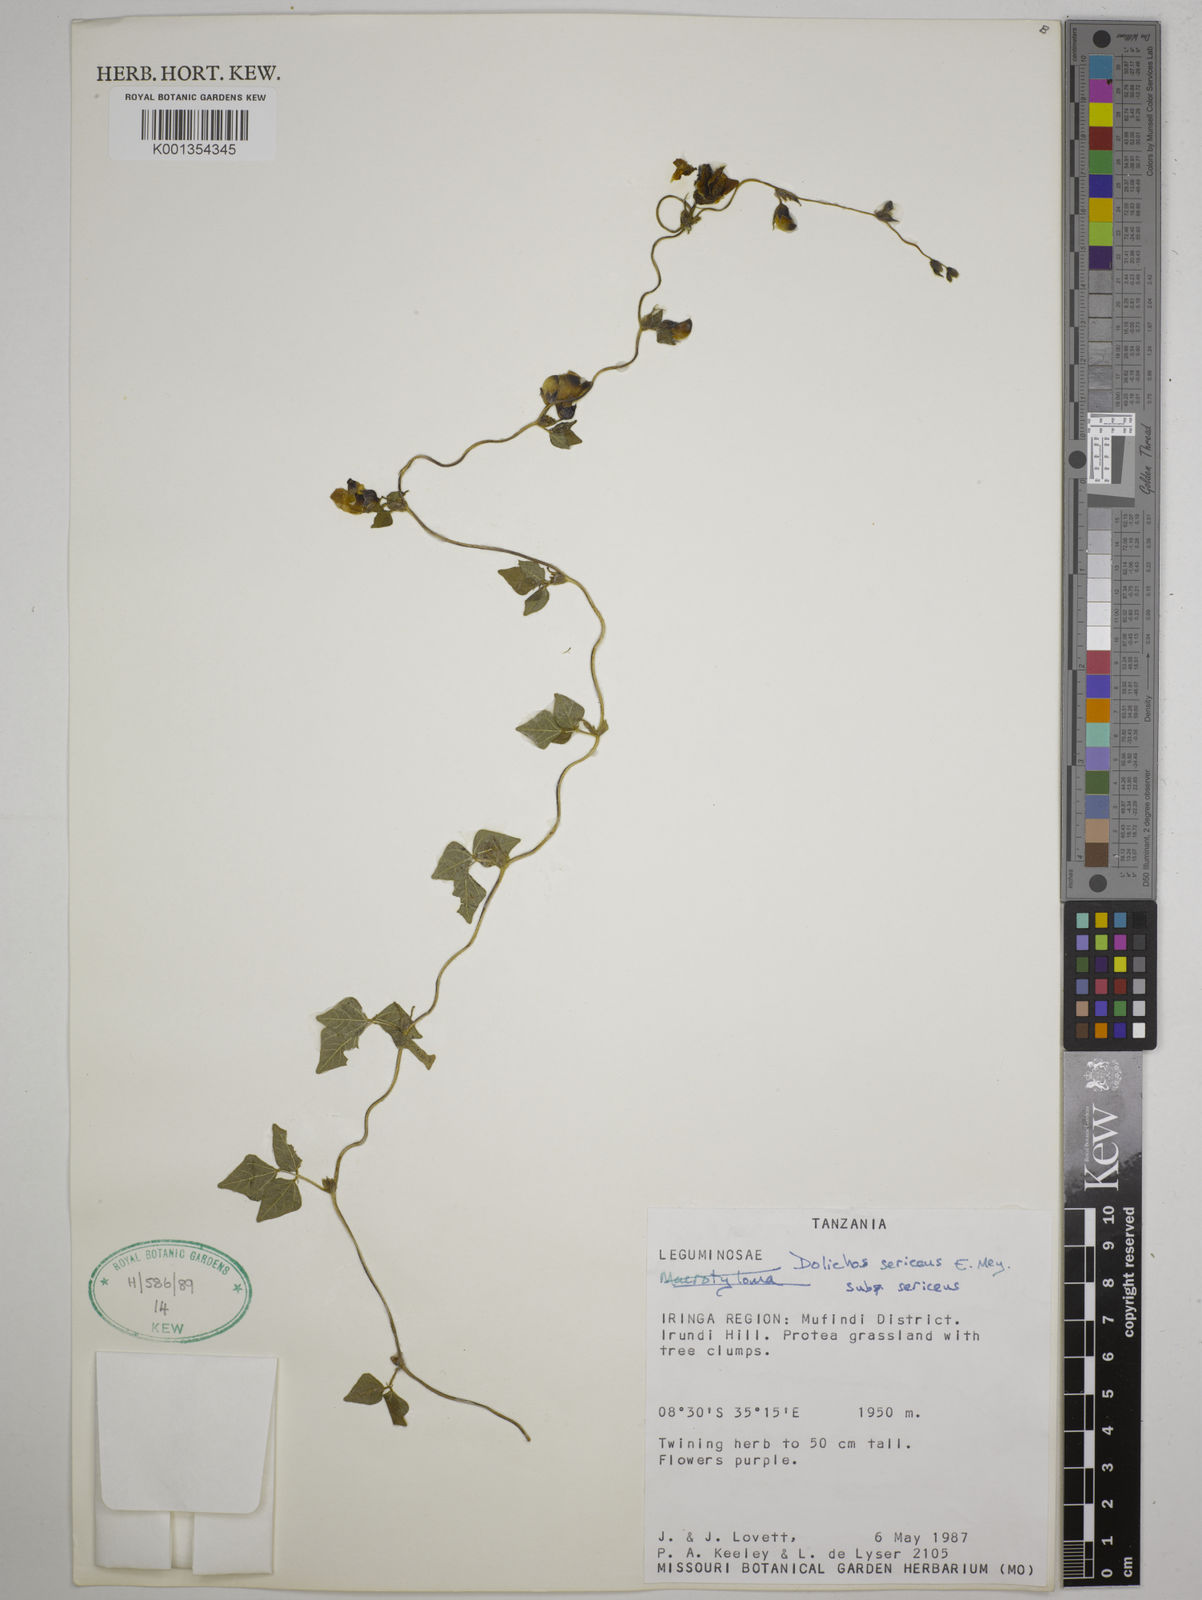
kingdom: Plantae
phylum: Tracheophyta
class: Magnoliopsida
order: Fabales
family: Fabaceae
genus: Dolichos
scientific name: Dolichos
